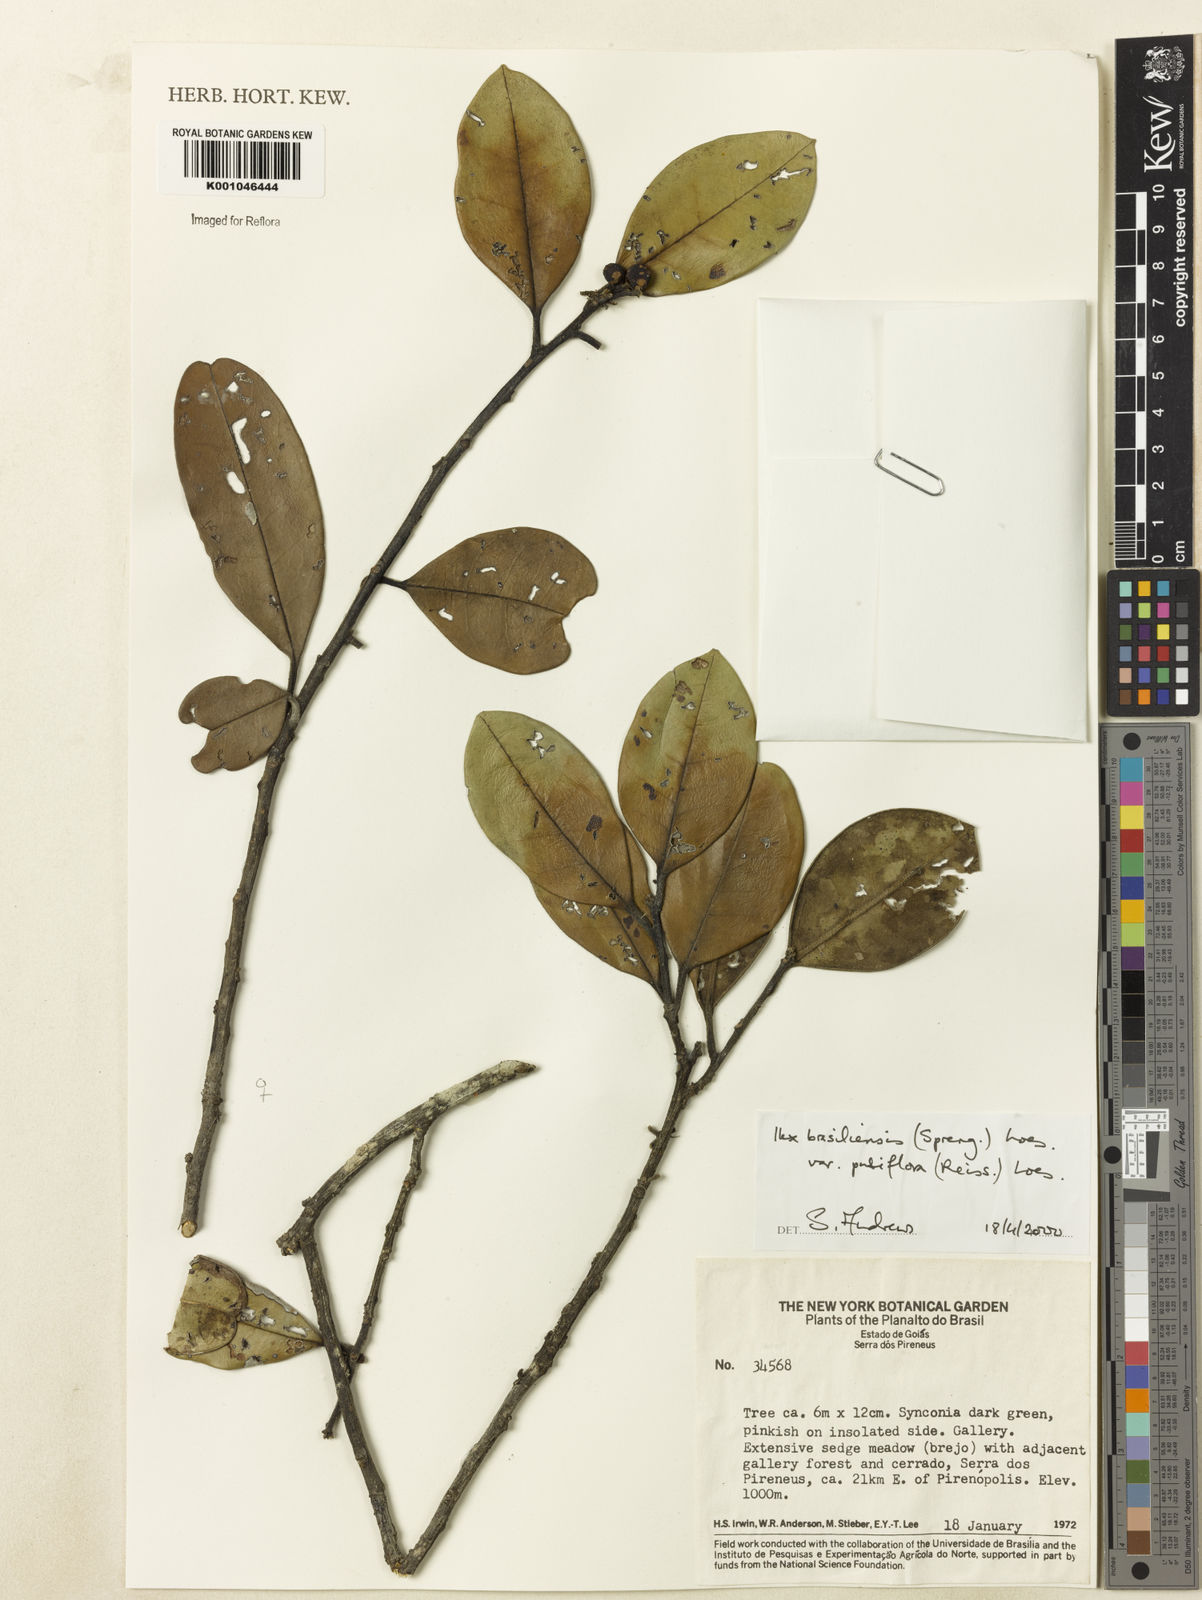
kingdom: Plantae
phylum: Tracheophyta
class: Magnoliopsida
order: Aquifoliales
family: Aquifoliaceae
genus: Ilex
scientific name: Ilex brasiliensis
